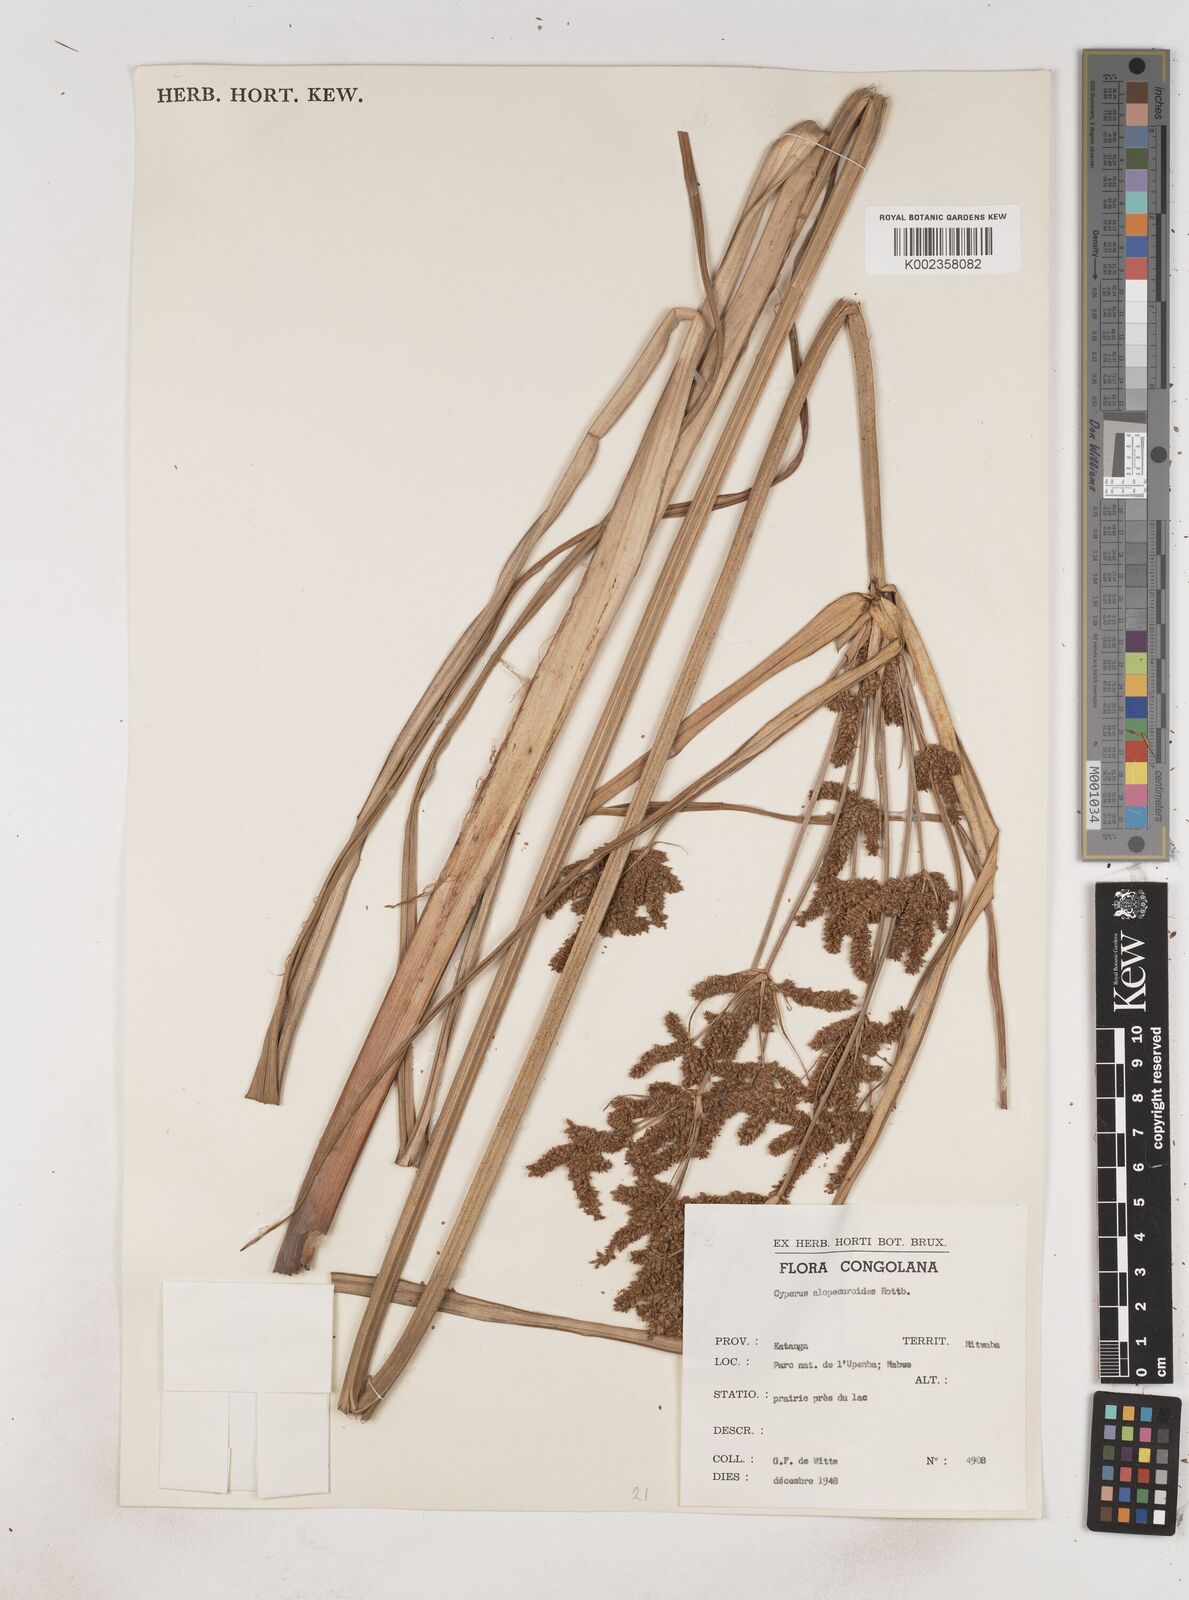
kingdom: Plantae
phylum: Tracheophyta
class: Liliopsida
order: Poales
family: Cyperaceae
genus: Cyperus
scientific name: Cyperus alopecuroides
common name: Foxtail flatsedge
